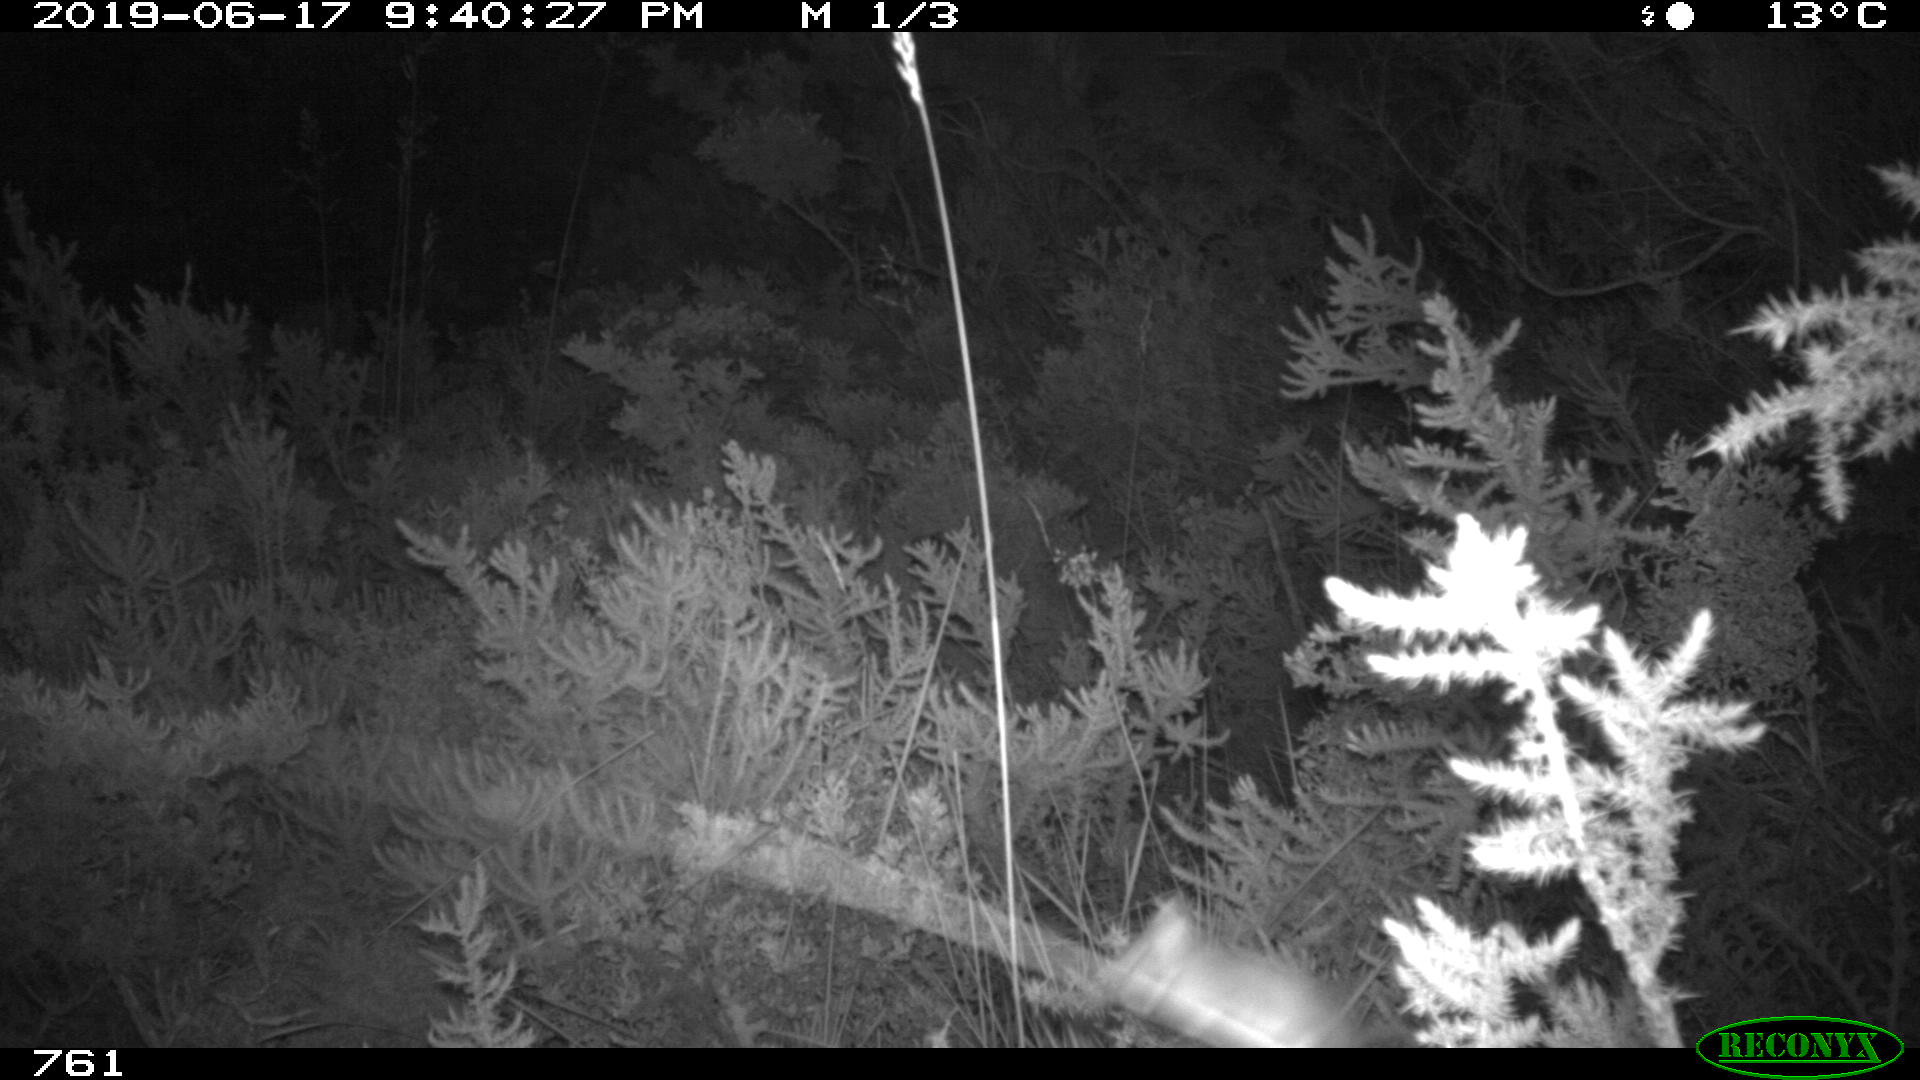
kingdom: Animalia
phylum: Chordata
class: Mammalia
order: Rodentia
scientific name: Rodentia
